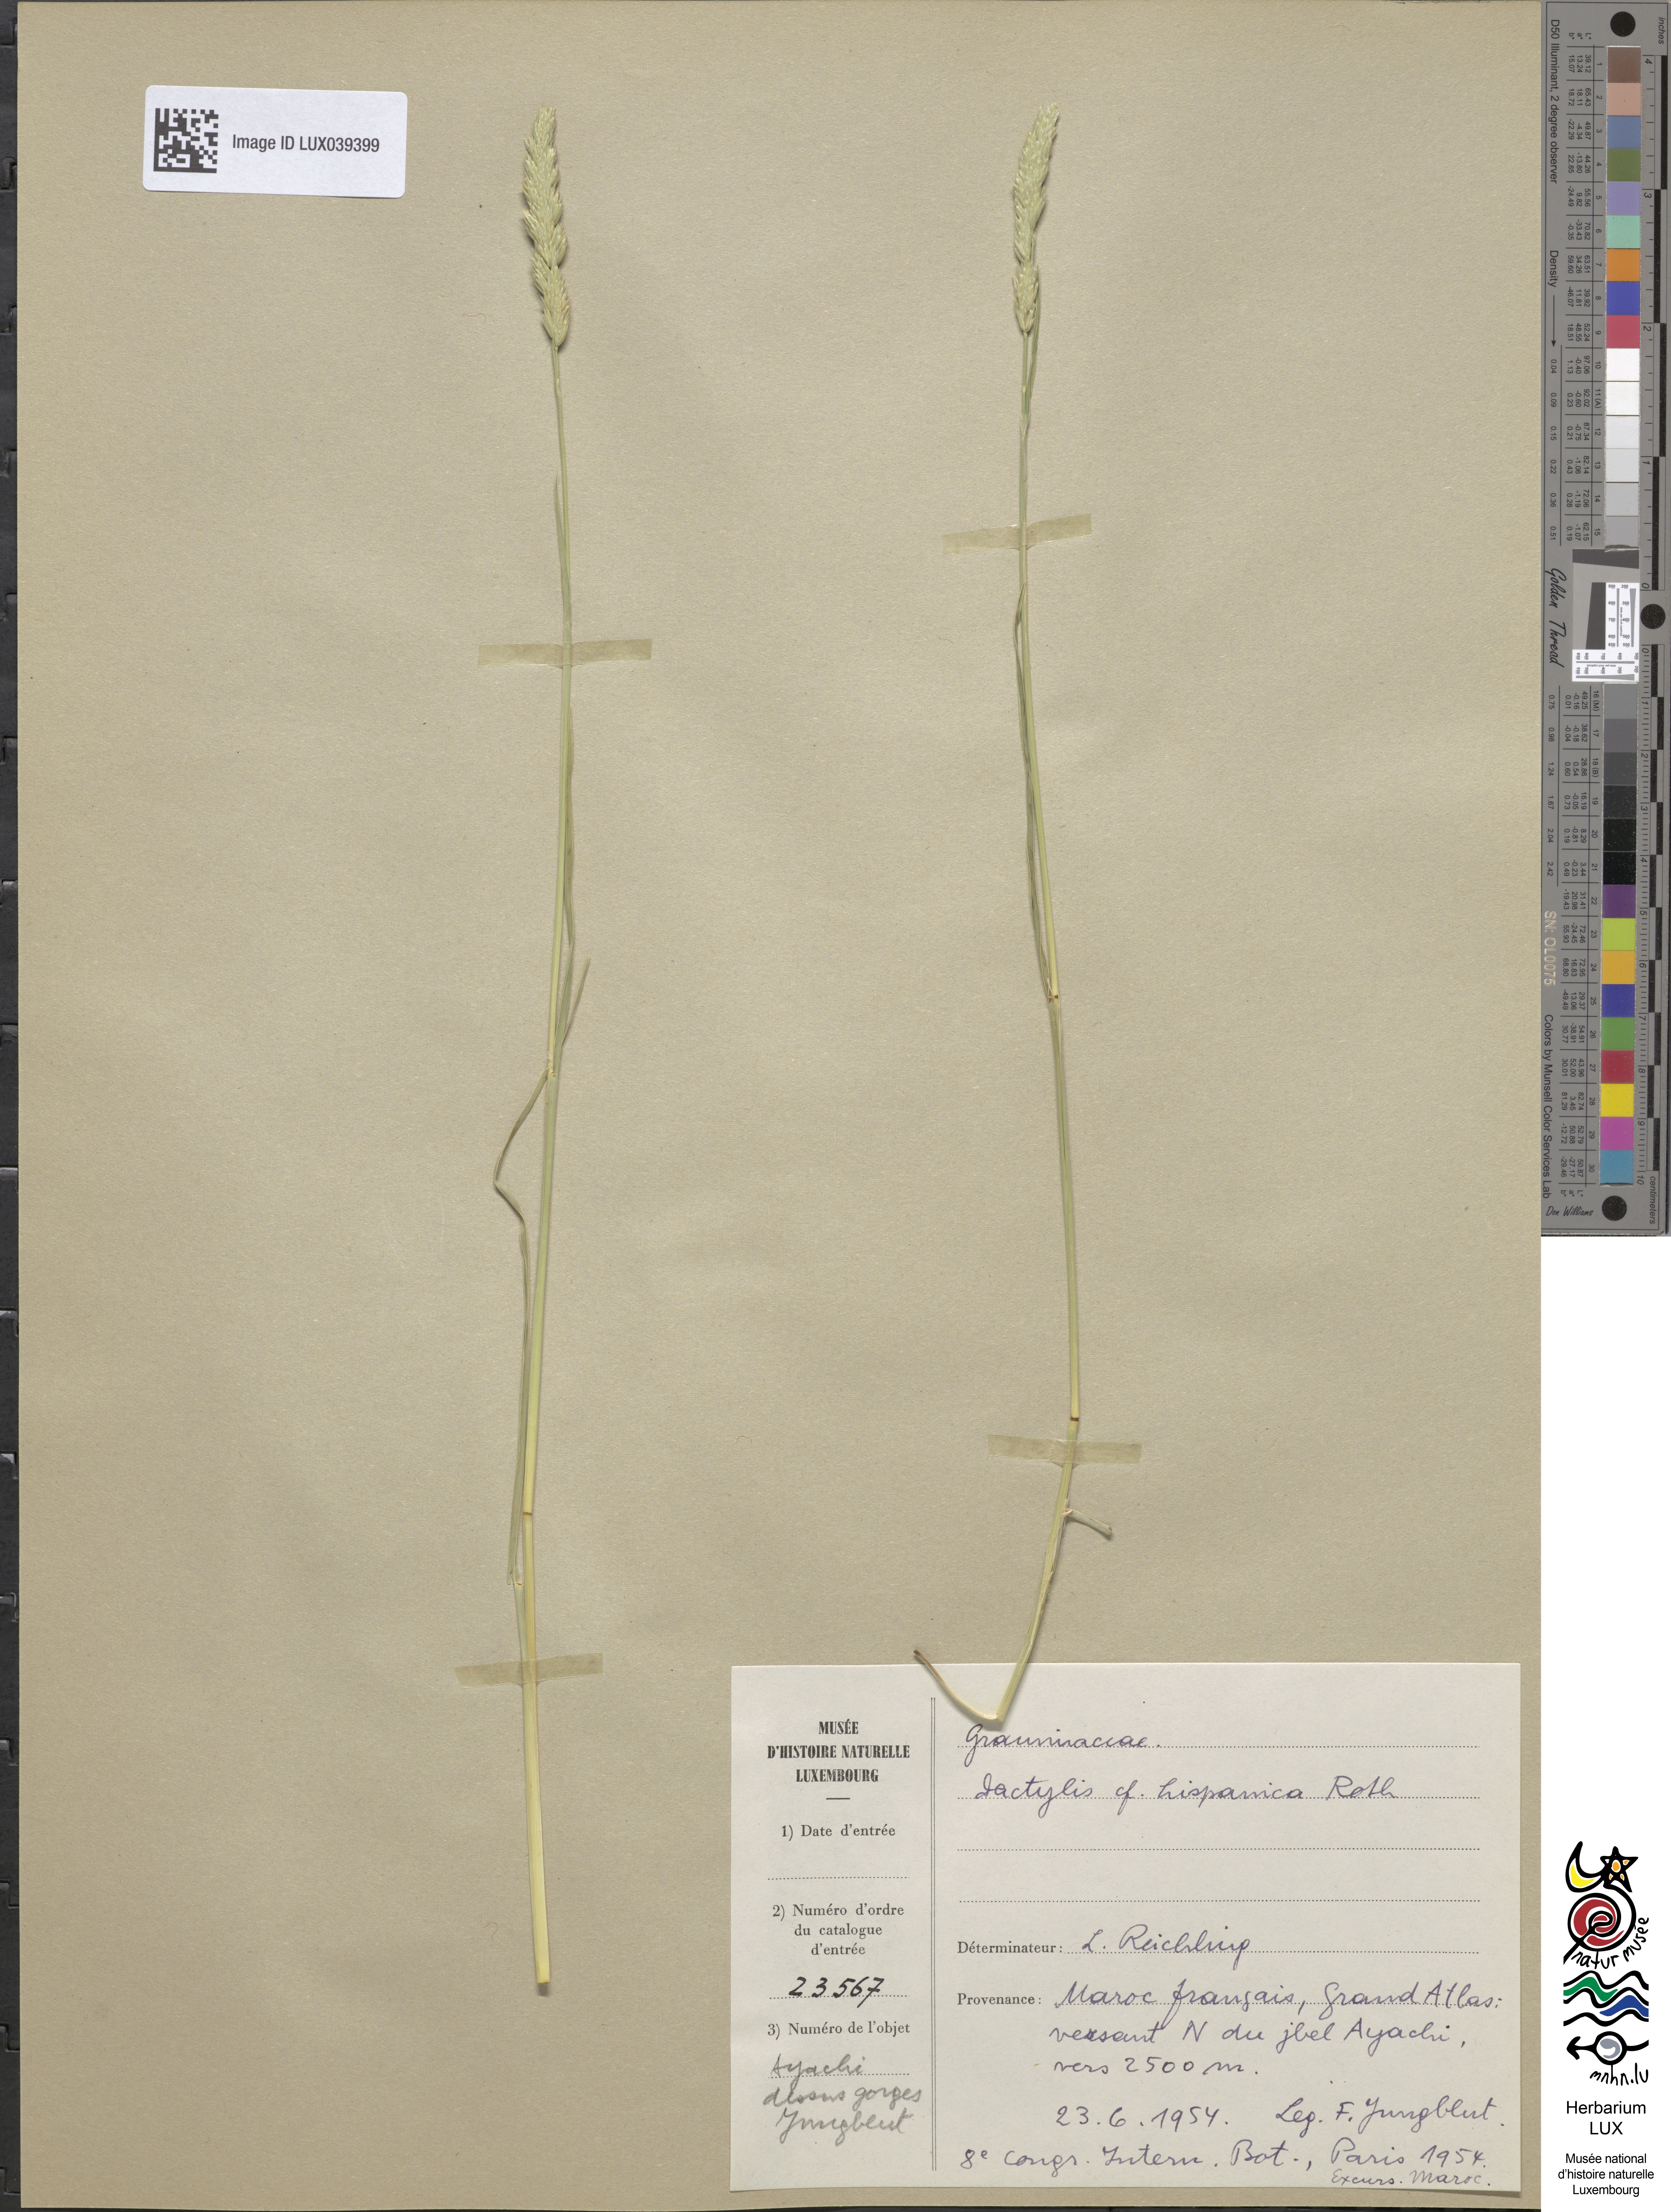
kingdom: Plantae
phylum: Tracheophyta
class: Liliopsida
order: Poales
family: Poaceae
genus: Dactylis
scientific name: Dactylis glomerata
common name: Orchardgrass
